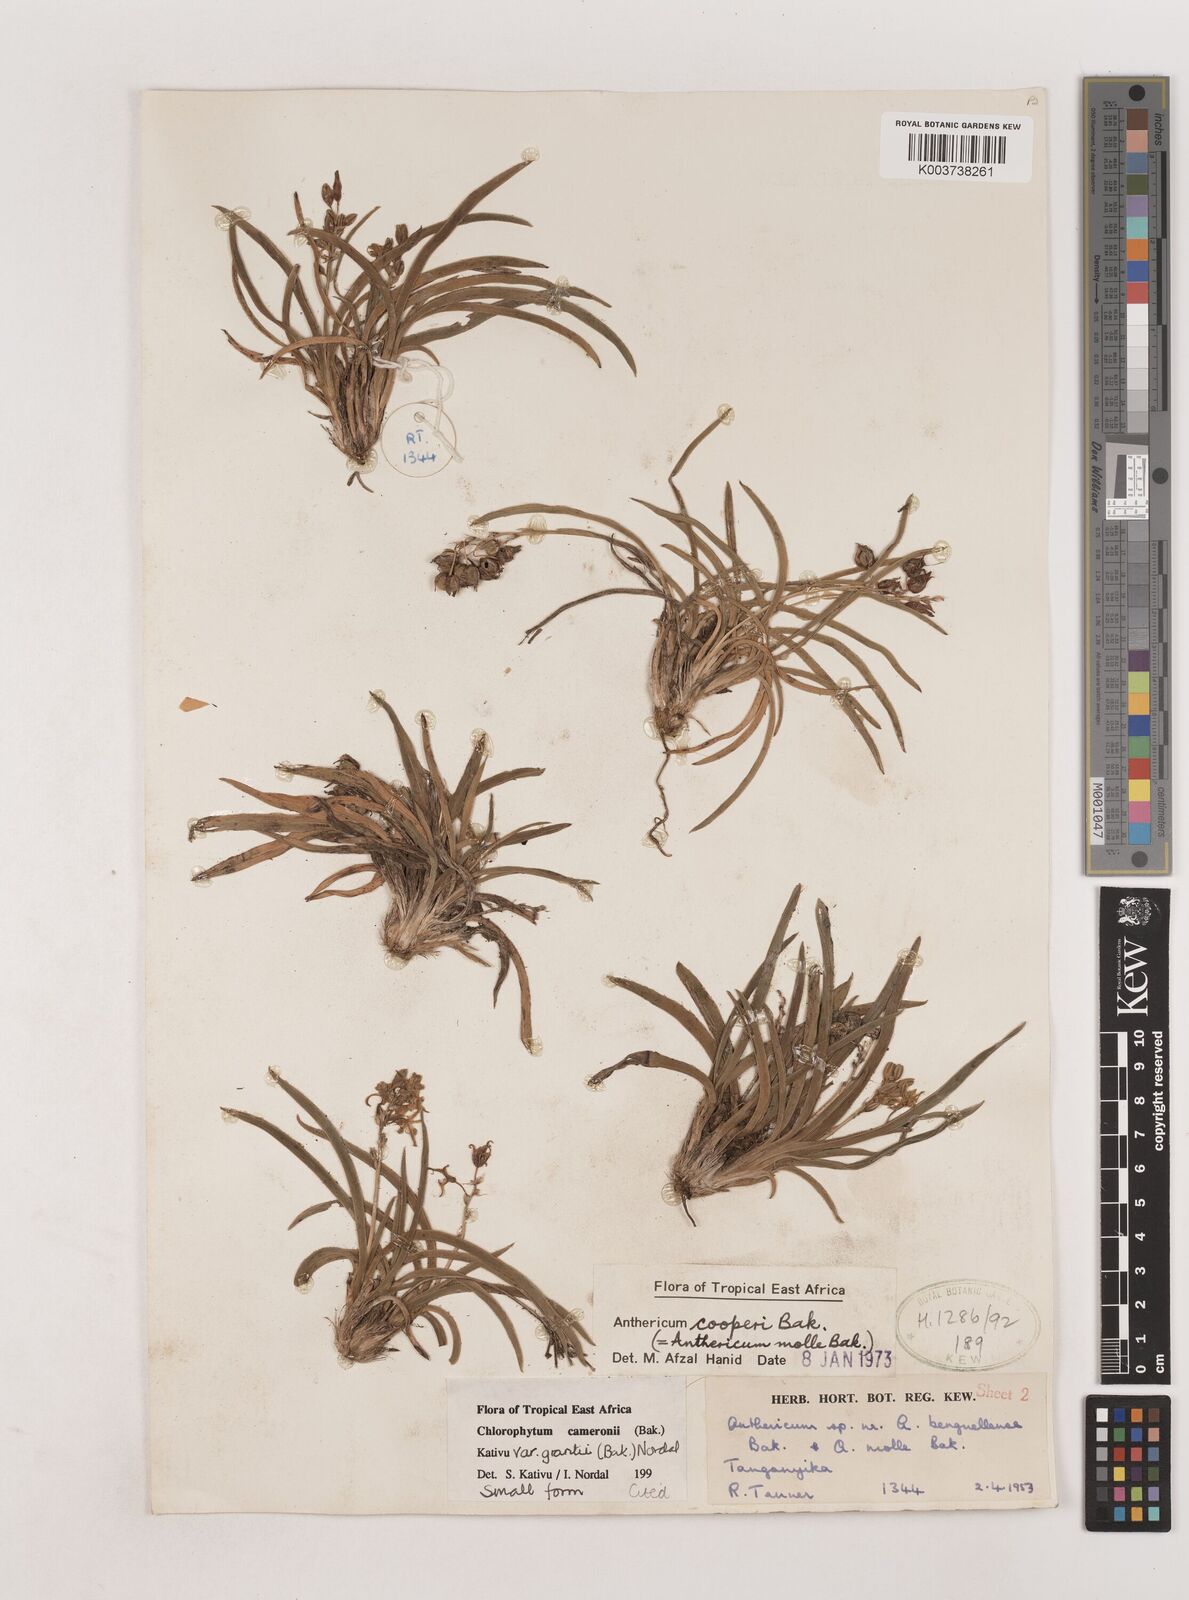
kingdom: Plantae
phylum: Tracheophyta
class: Liliopsida
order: Asparagales
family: Asparagaceae
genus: Chlorophytum
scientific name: Chlorophytum cameronii
